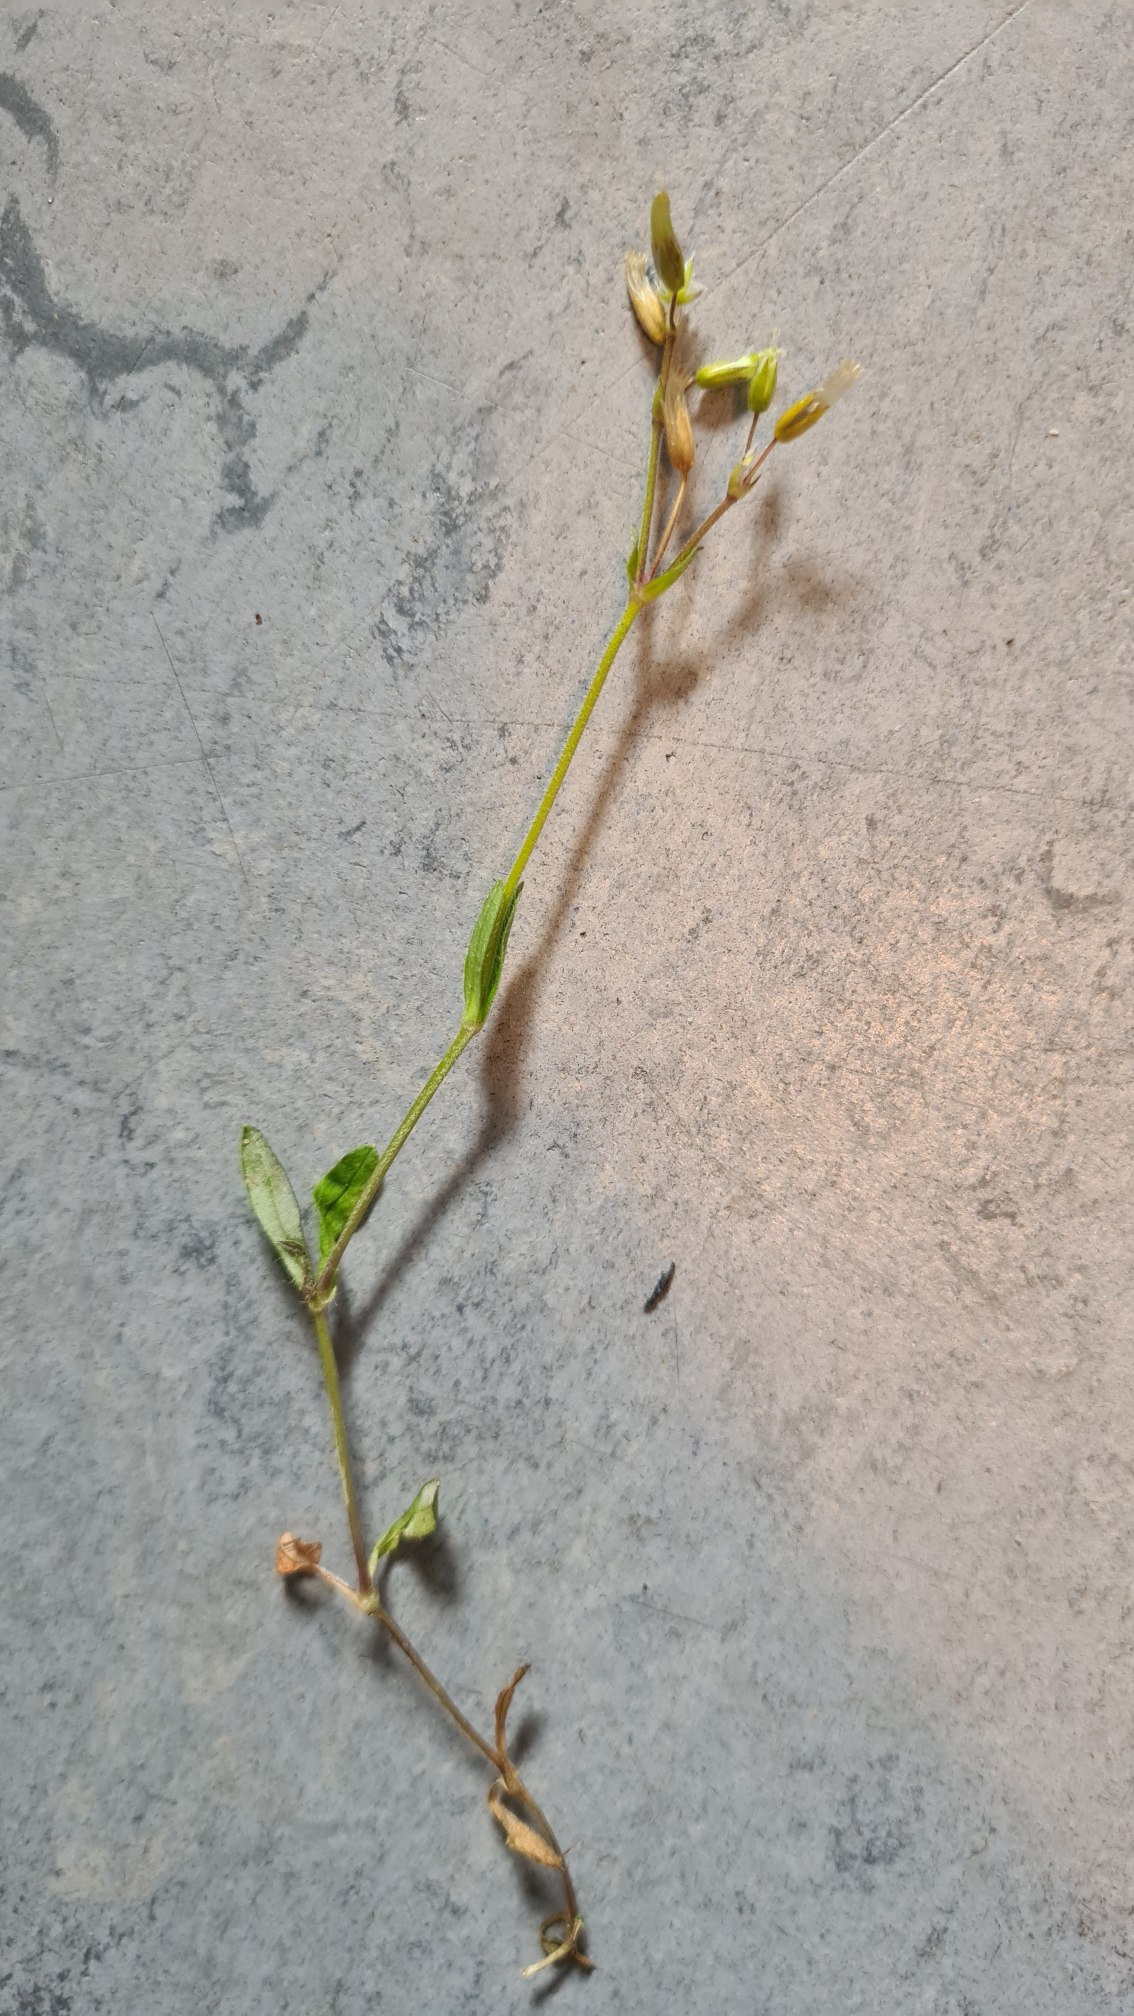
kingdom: Plantae
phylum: Tracheophyta
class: Magnoliopsida
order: Caryophyllales
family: Caryophyllaceae
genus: Cerastium
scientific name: Cerastium fontanum
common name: Almindelig hønsetarm
